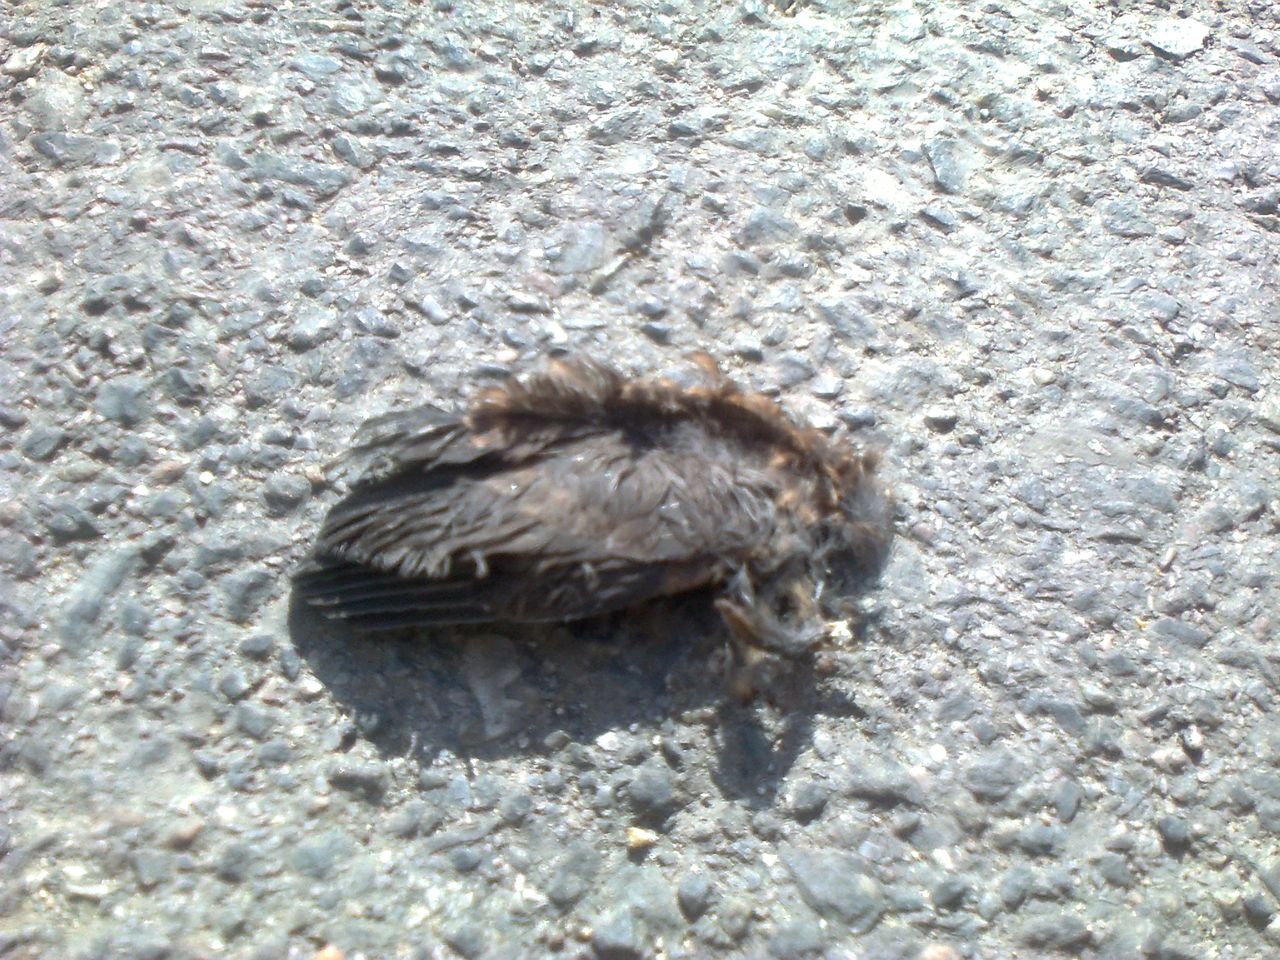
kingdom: Animalia
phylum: Chordata
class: Aves
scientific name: Aves
